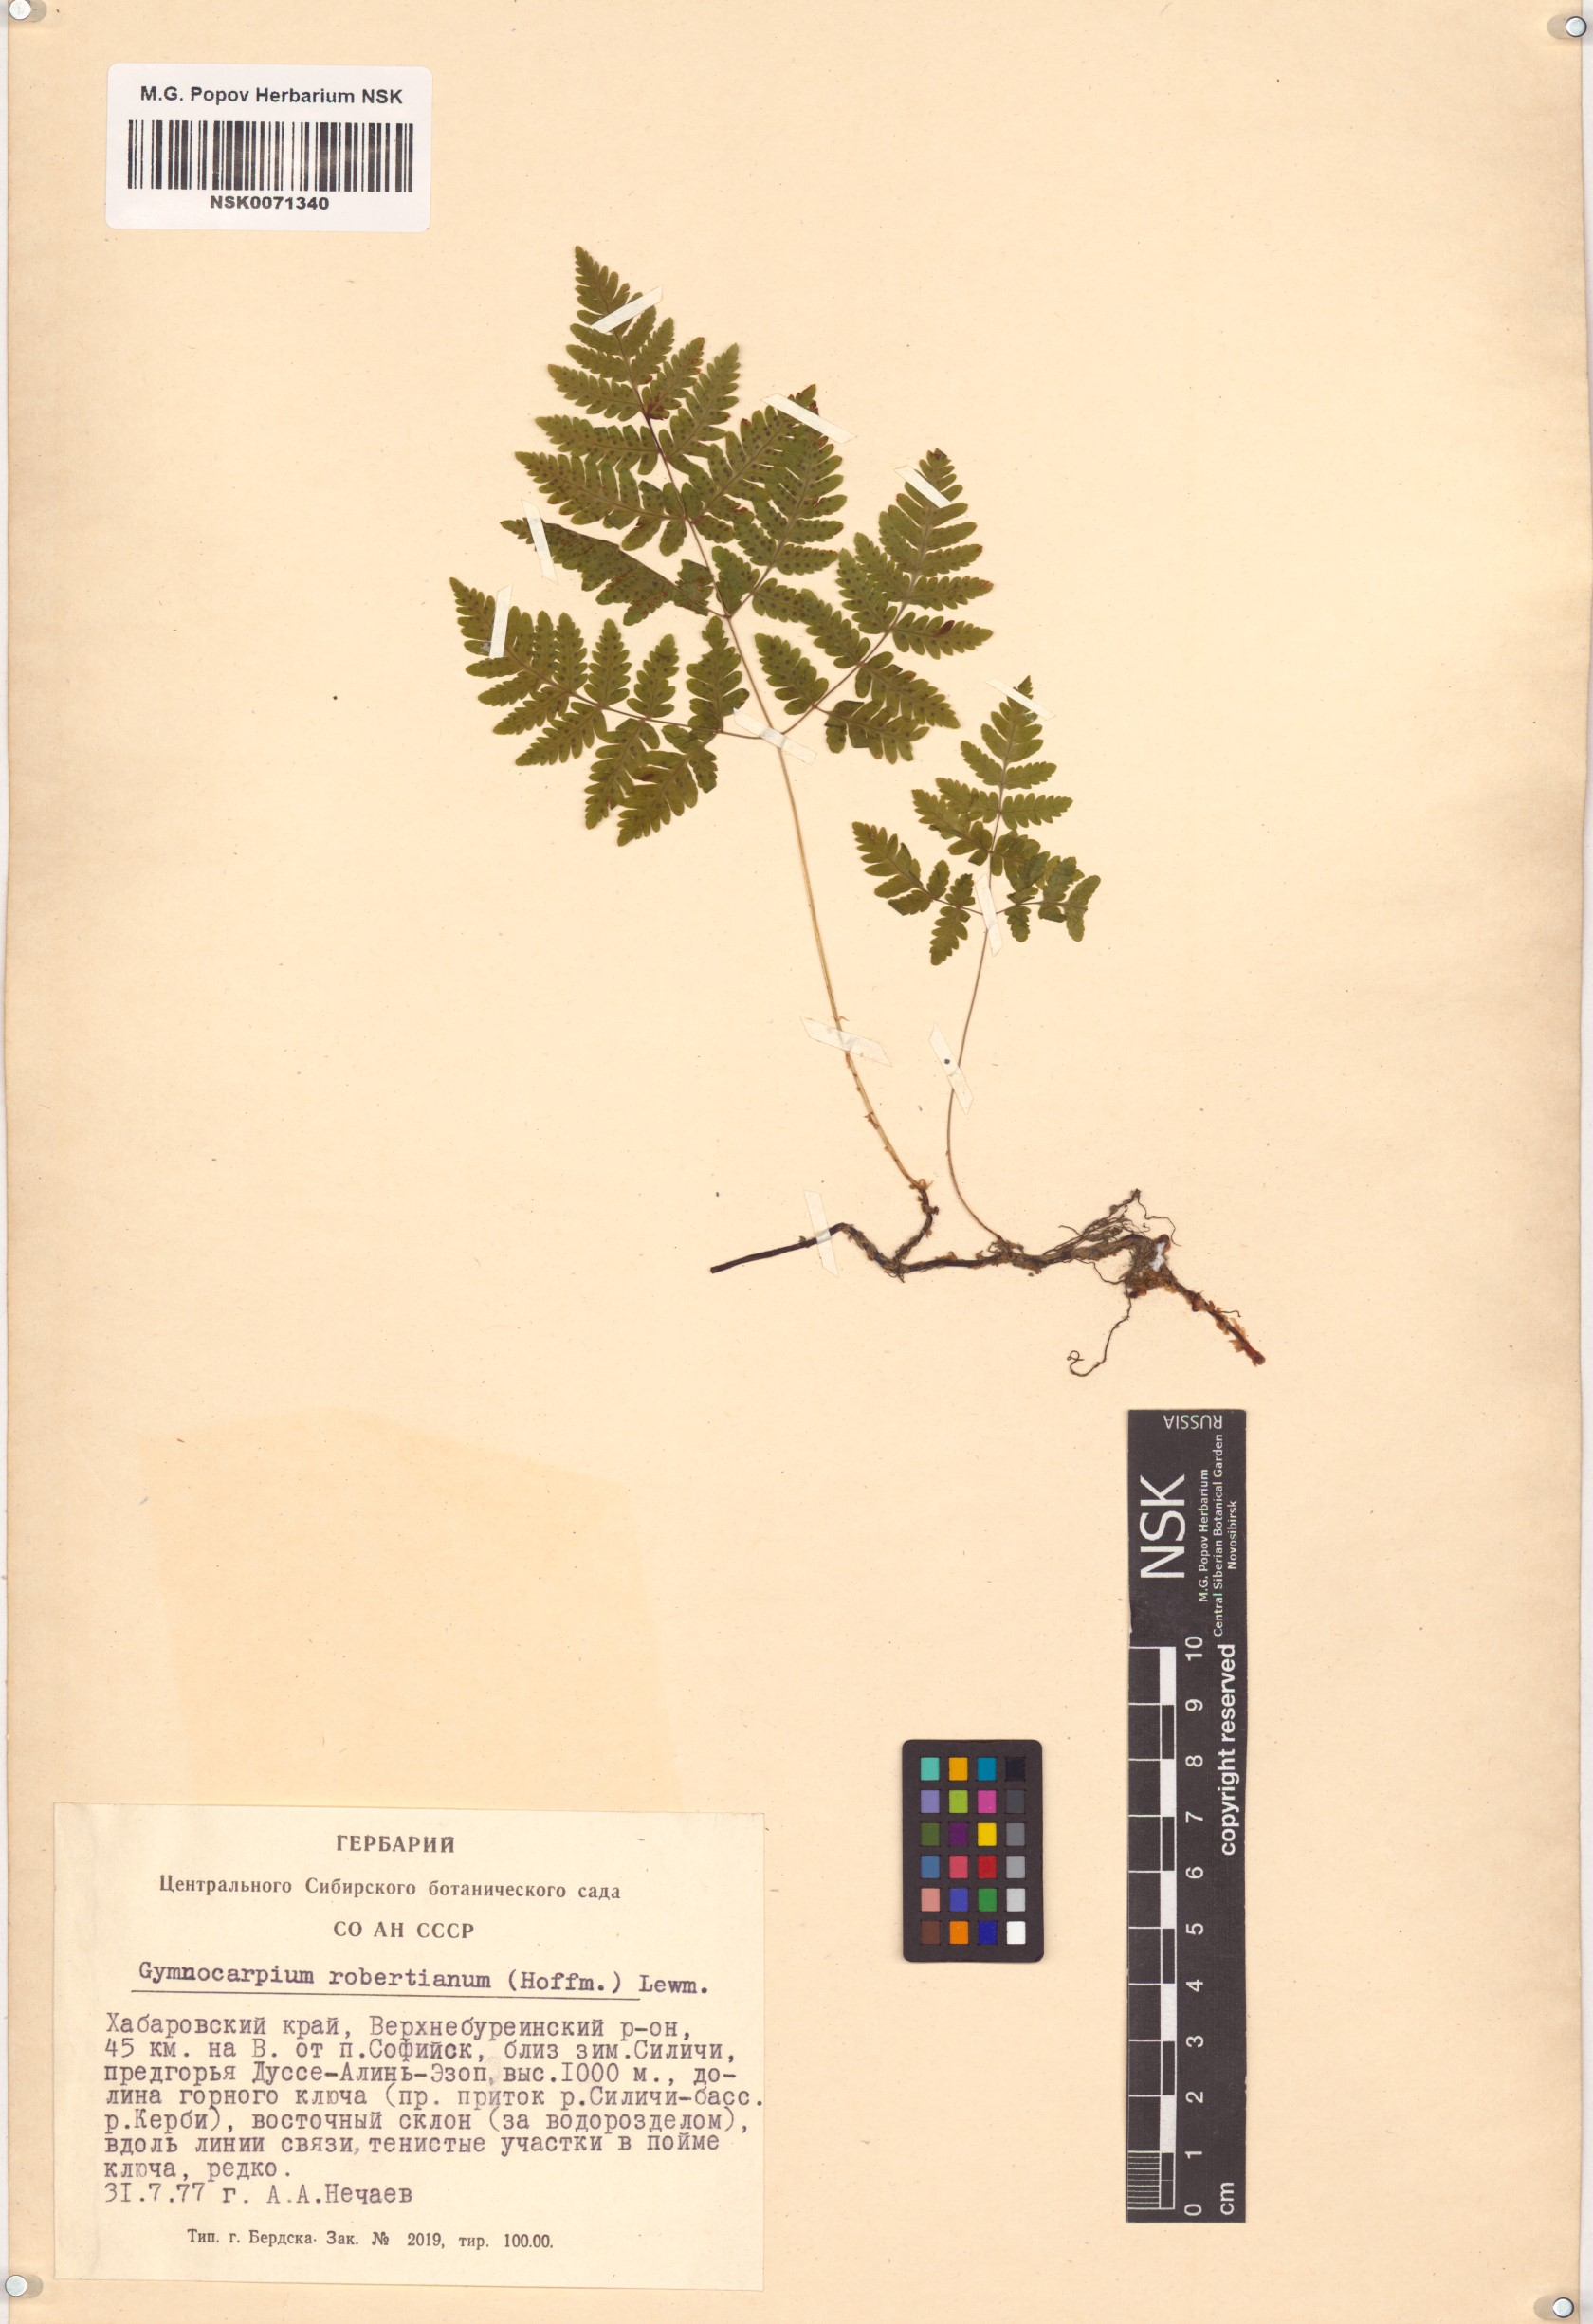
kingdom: Plantae
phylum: Tracheophyta
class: Polypodiopsida
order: Polypodiales
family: Cystopteridaceae
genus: Gymnocarpium
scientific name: Gymnocarpium robertianum
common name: Limestone fern
